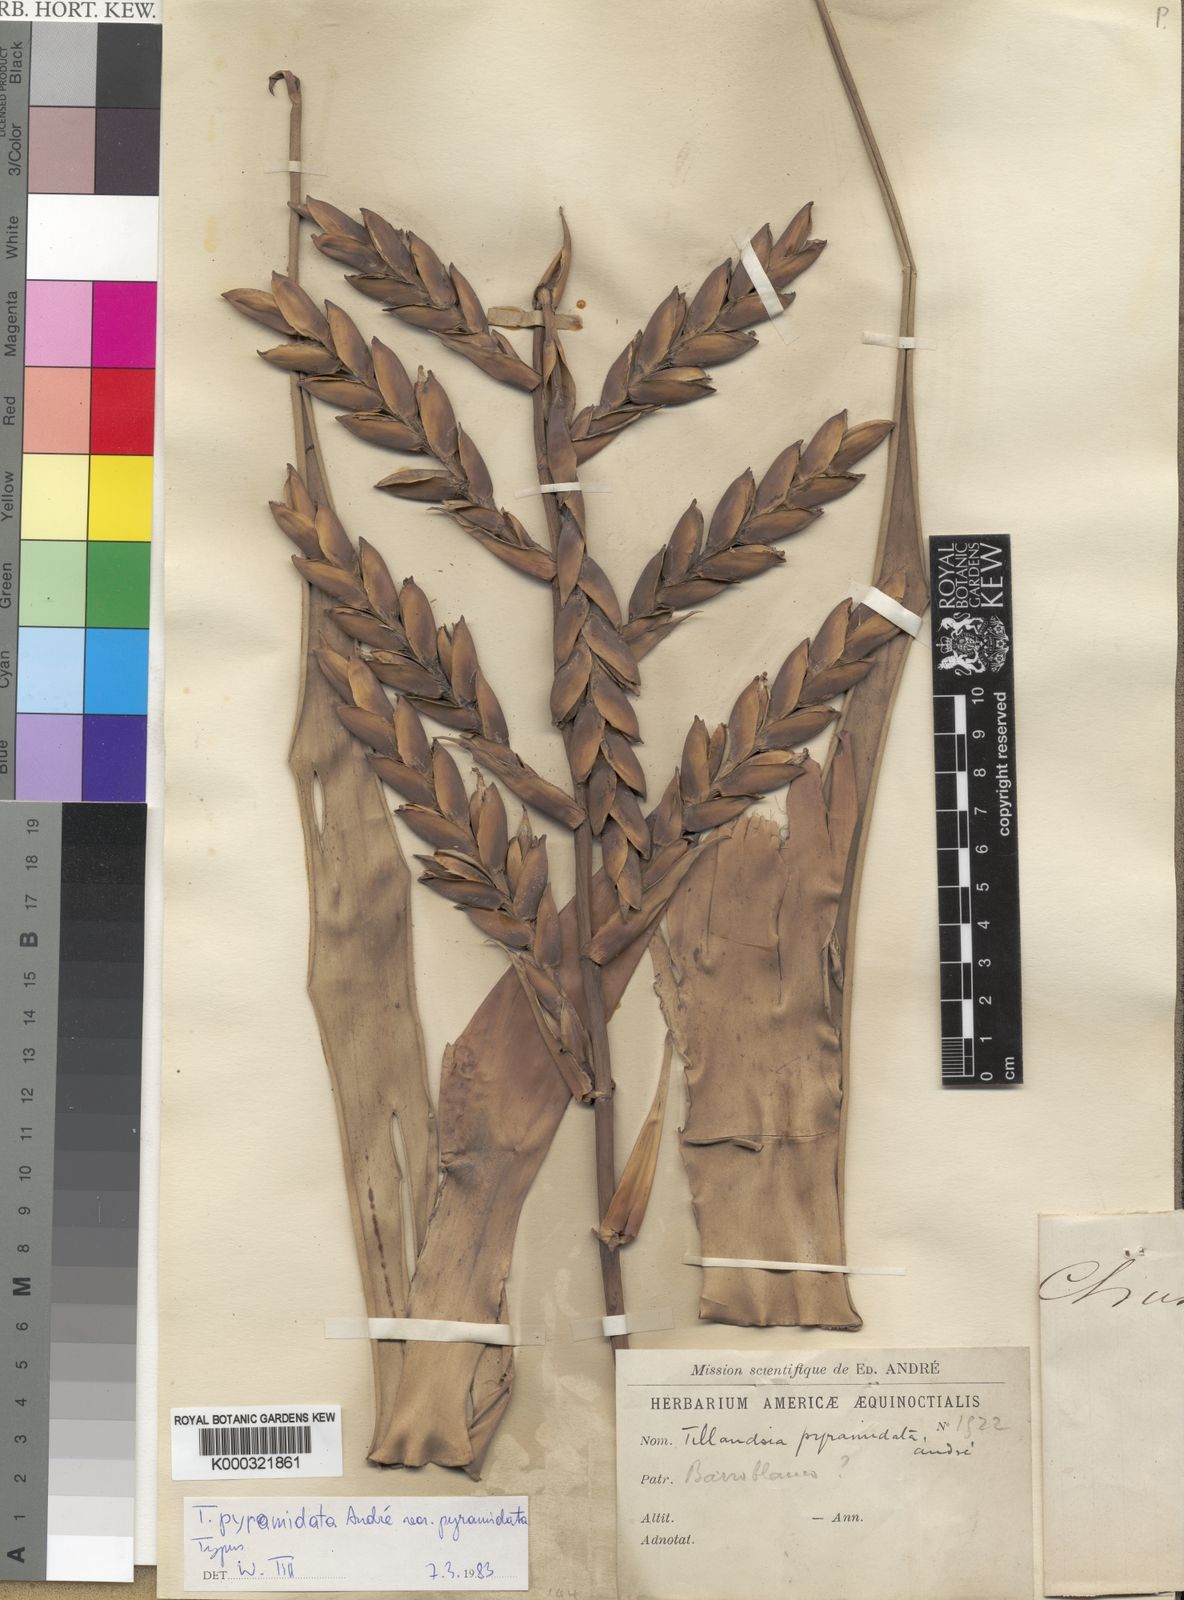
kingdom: Plantae
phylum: Tracheophyta
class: Liliopsida
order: Poales
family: Bromeliaceae
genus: Tillandsia
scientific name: Tillandsia pyramidata
